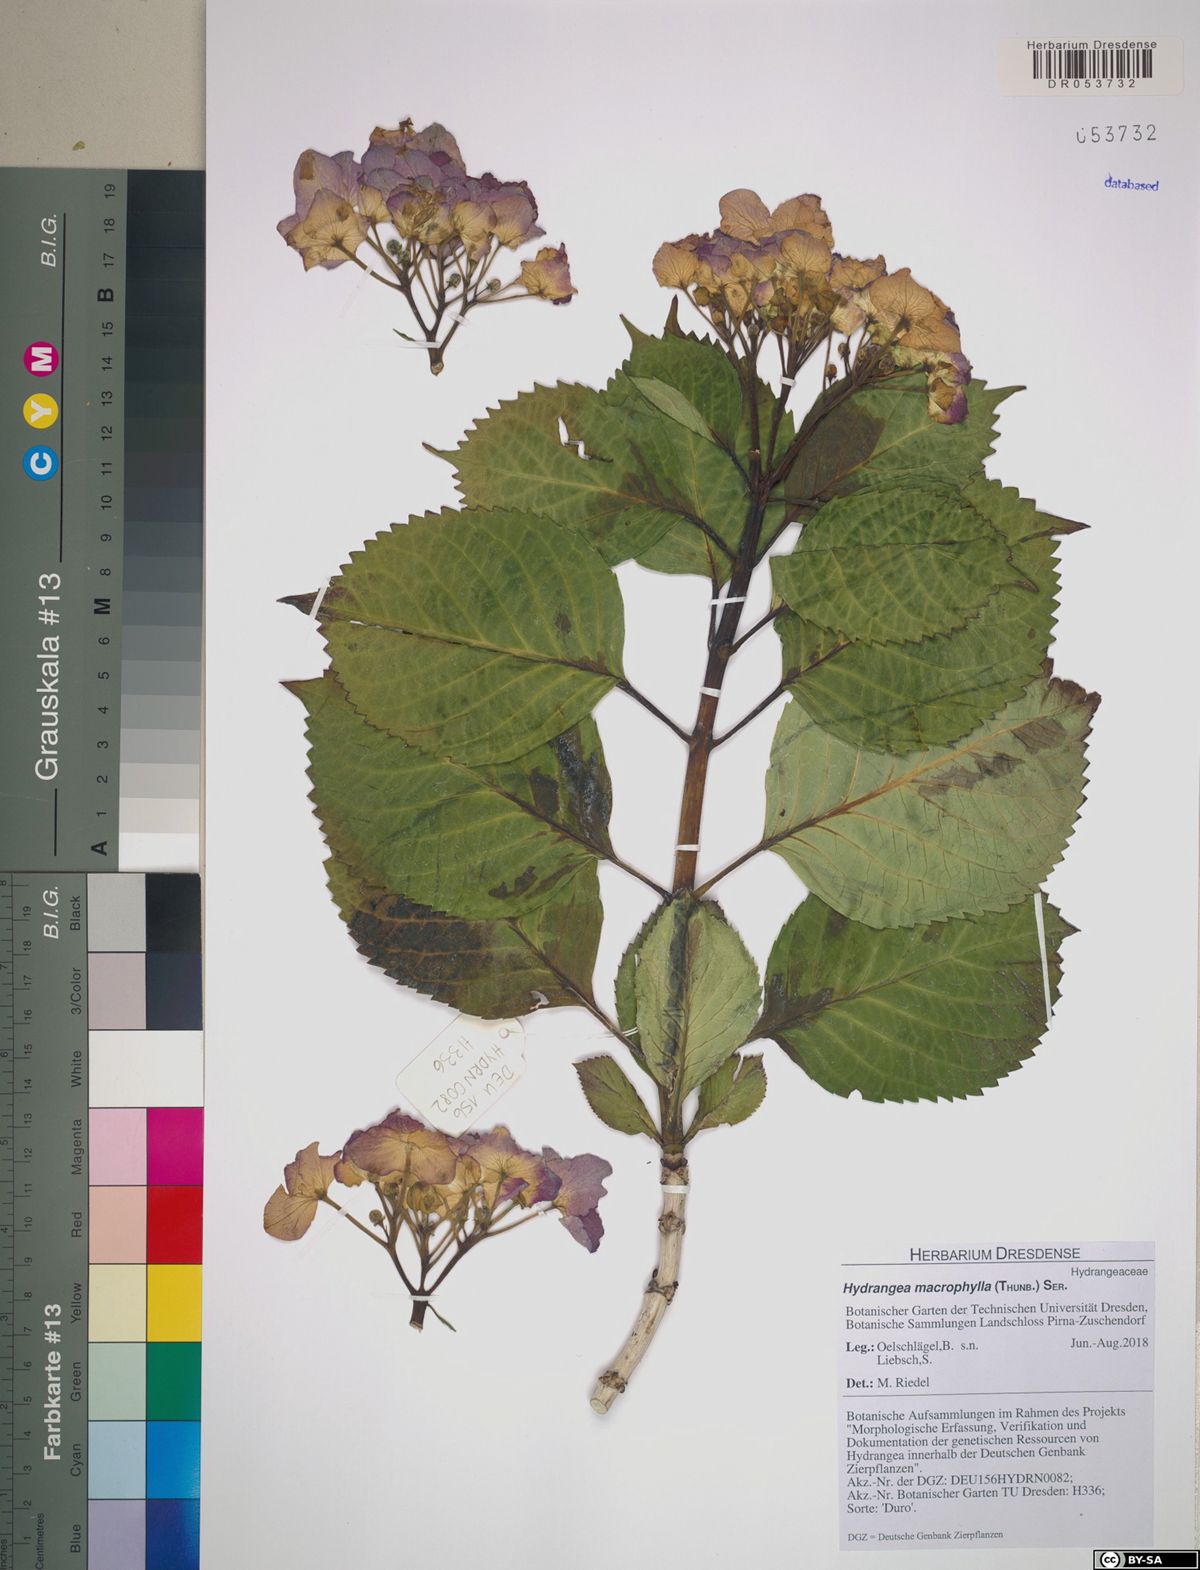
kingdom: Plantae
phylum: Tracheophyta
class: Magnoliopsida
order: Cornales
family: Hydrangeaceae
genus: Hydrangea
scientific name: Hydrangea macrophylla
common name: Hydrangea
